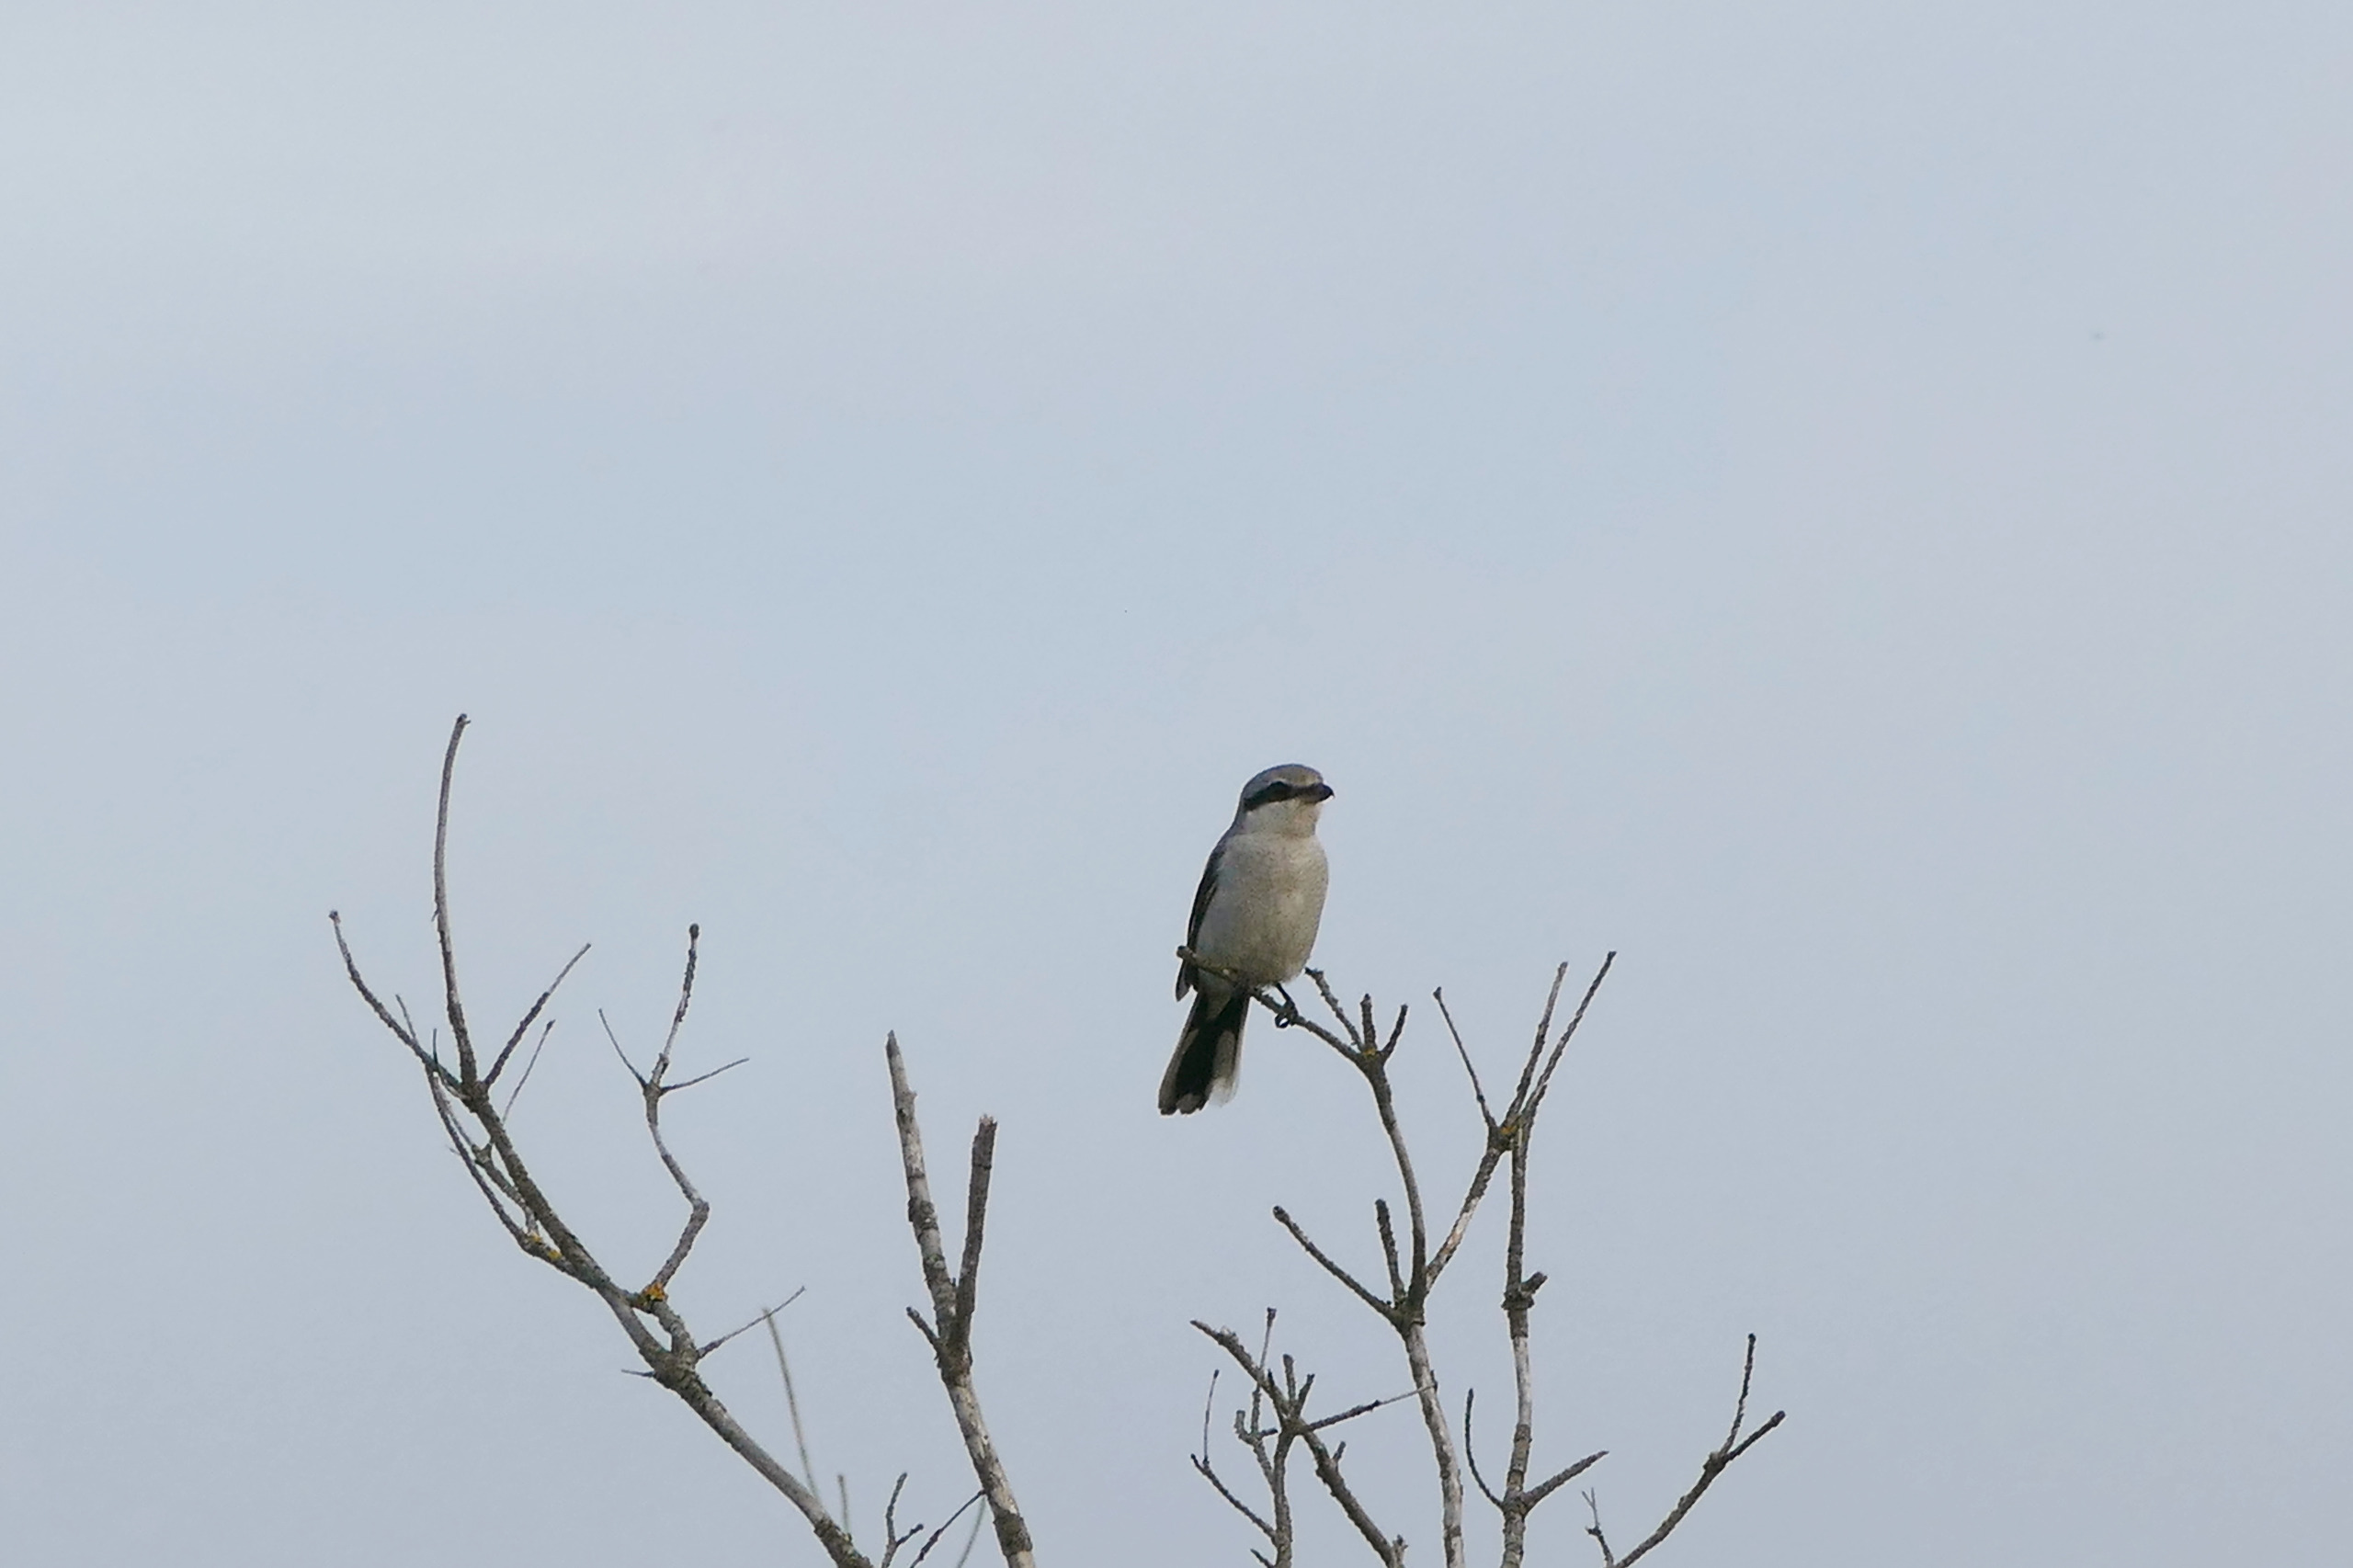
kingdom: Animalia
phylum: Chordata
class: Aves
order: Passeriformes
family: Laniidae
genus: Lanius
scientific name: Lanius excubitor
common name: Stor tornskade
